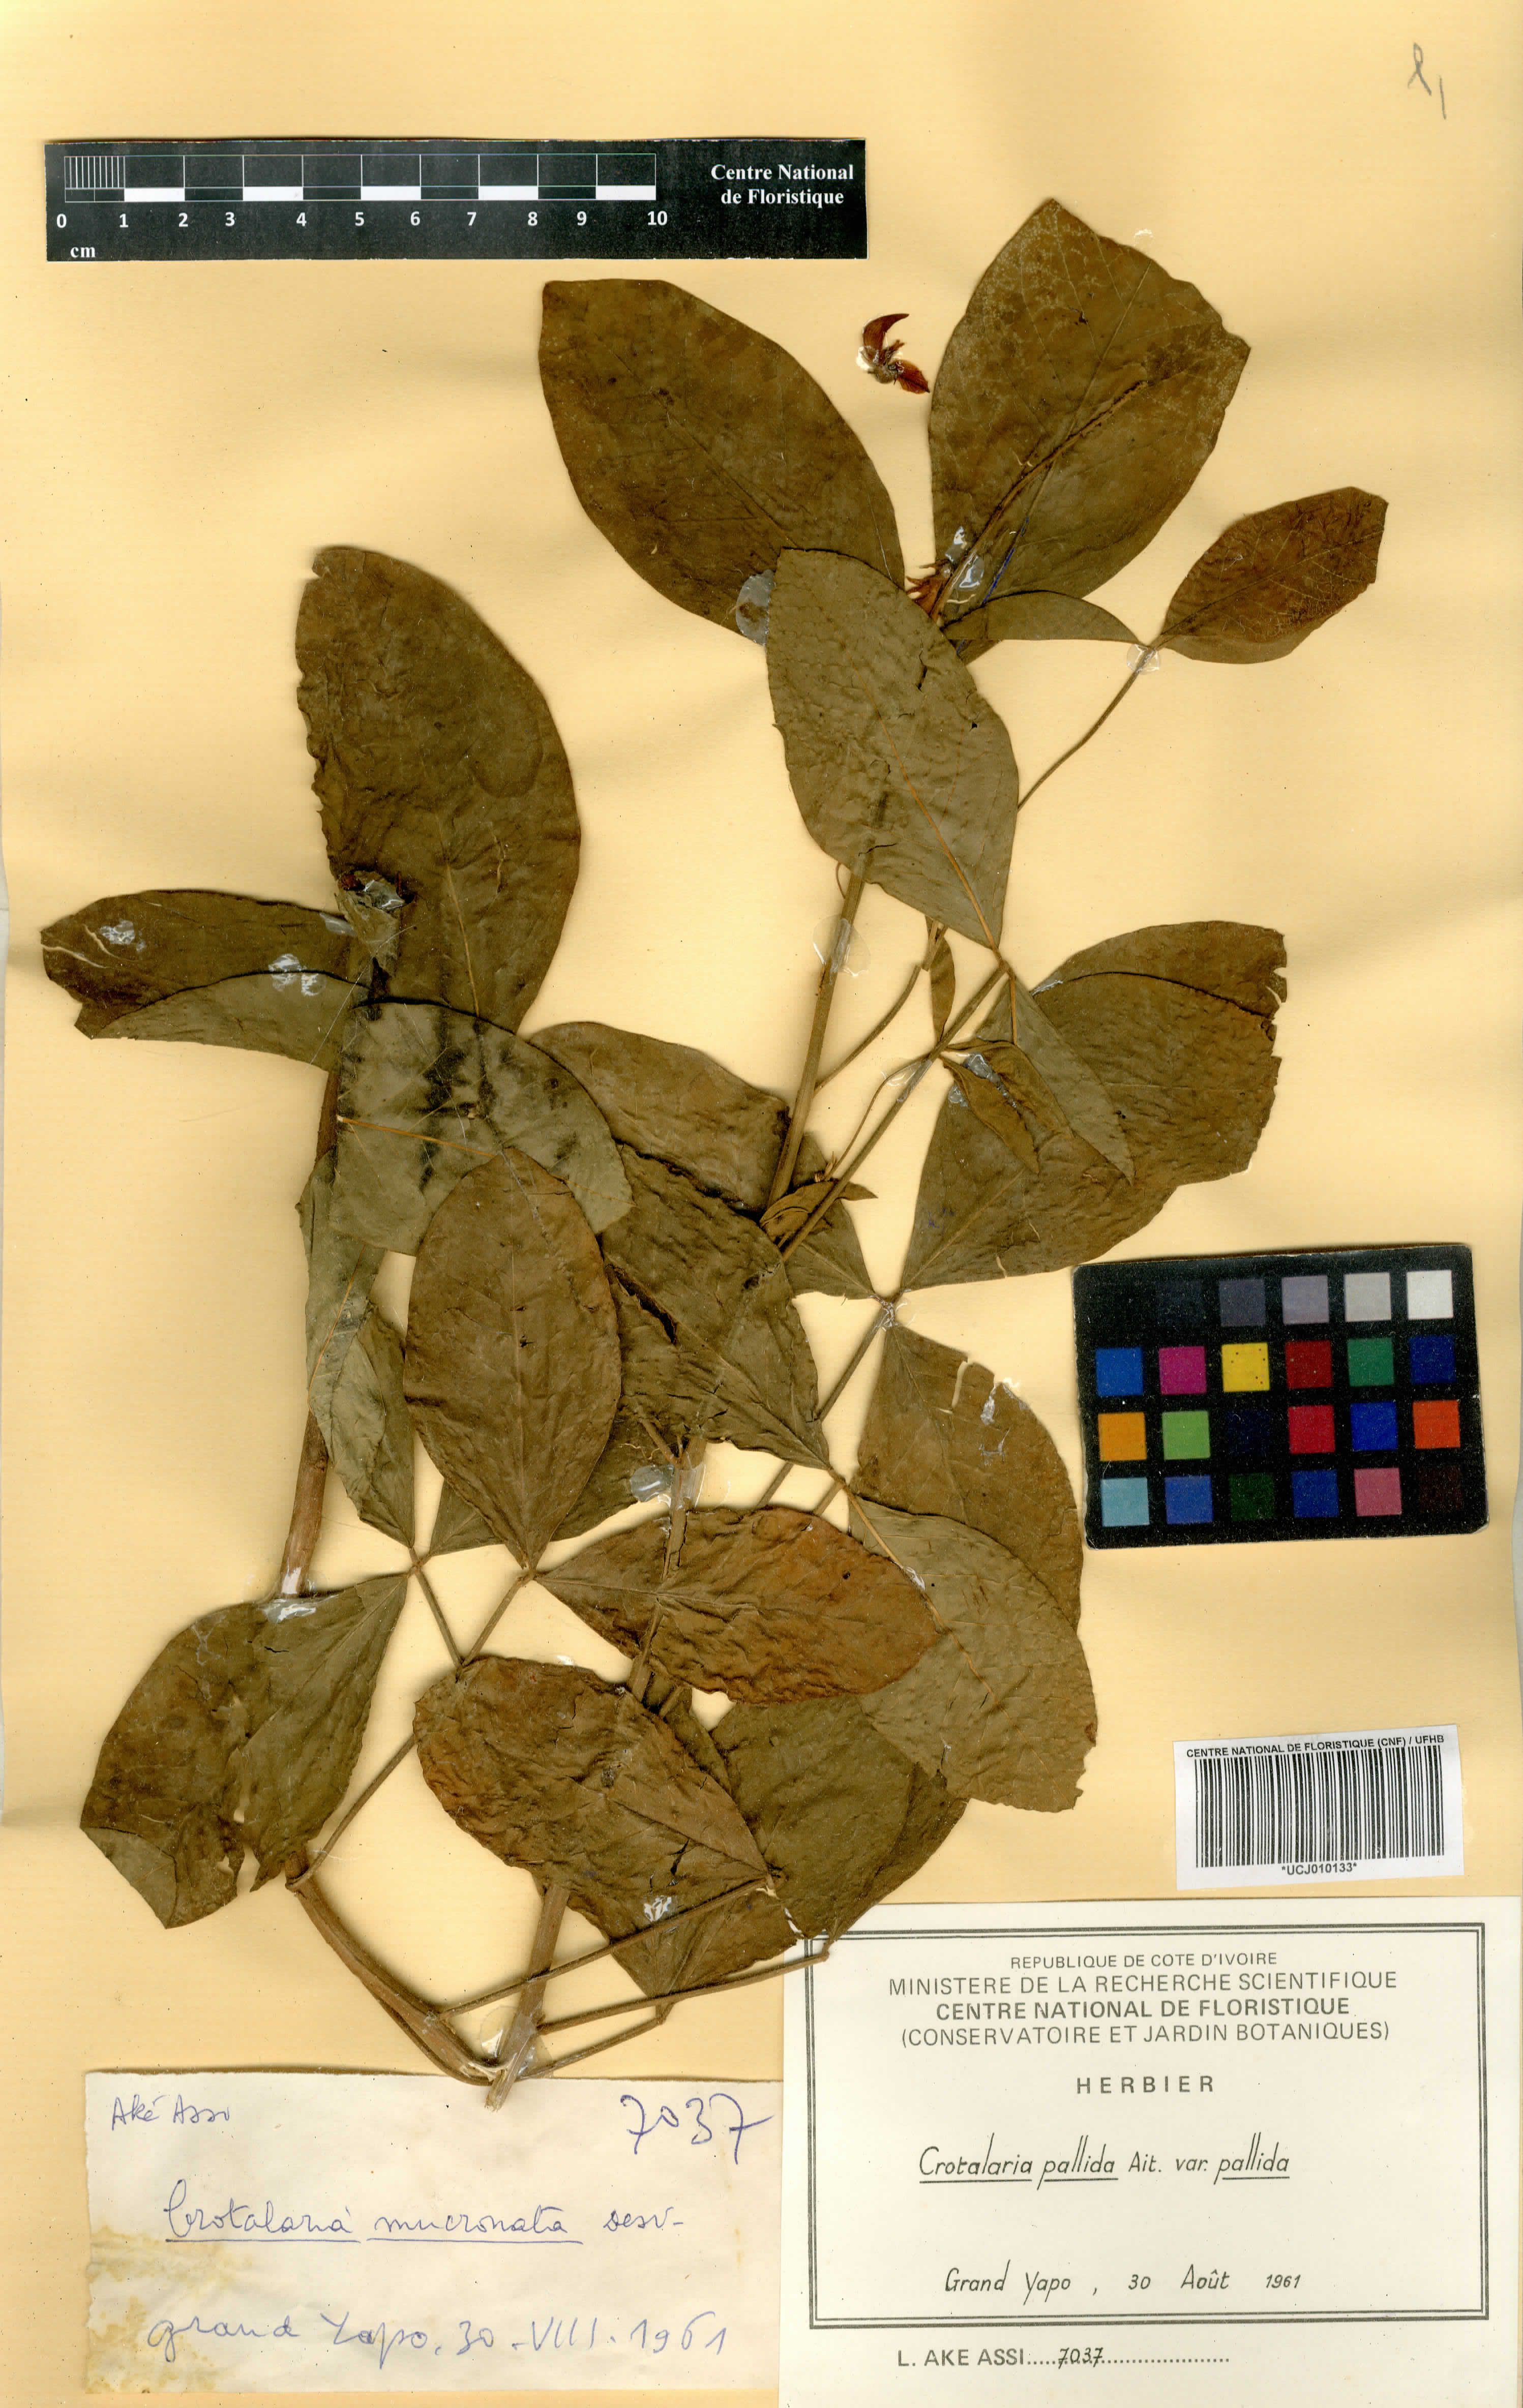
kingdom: Plantae
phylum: Tracheophyta
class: Magnoliopsida
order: Fabales
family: Fabaceae
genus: Crotalaria
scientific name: Crotalaria pallida
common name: Smooth rattlebox
